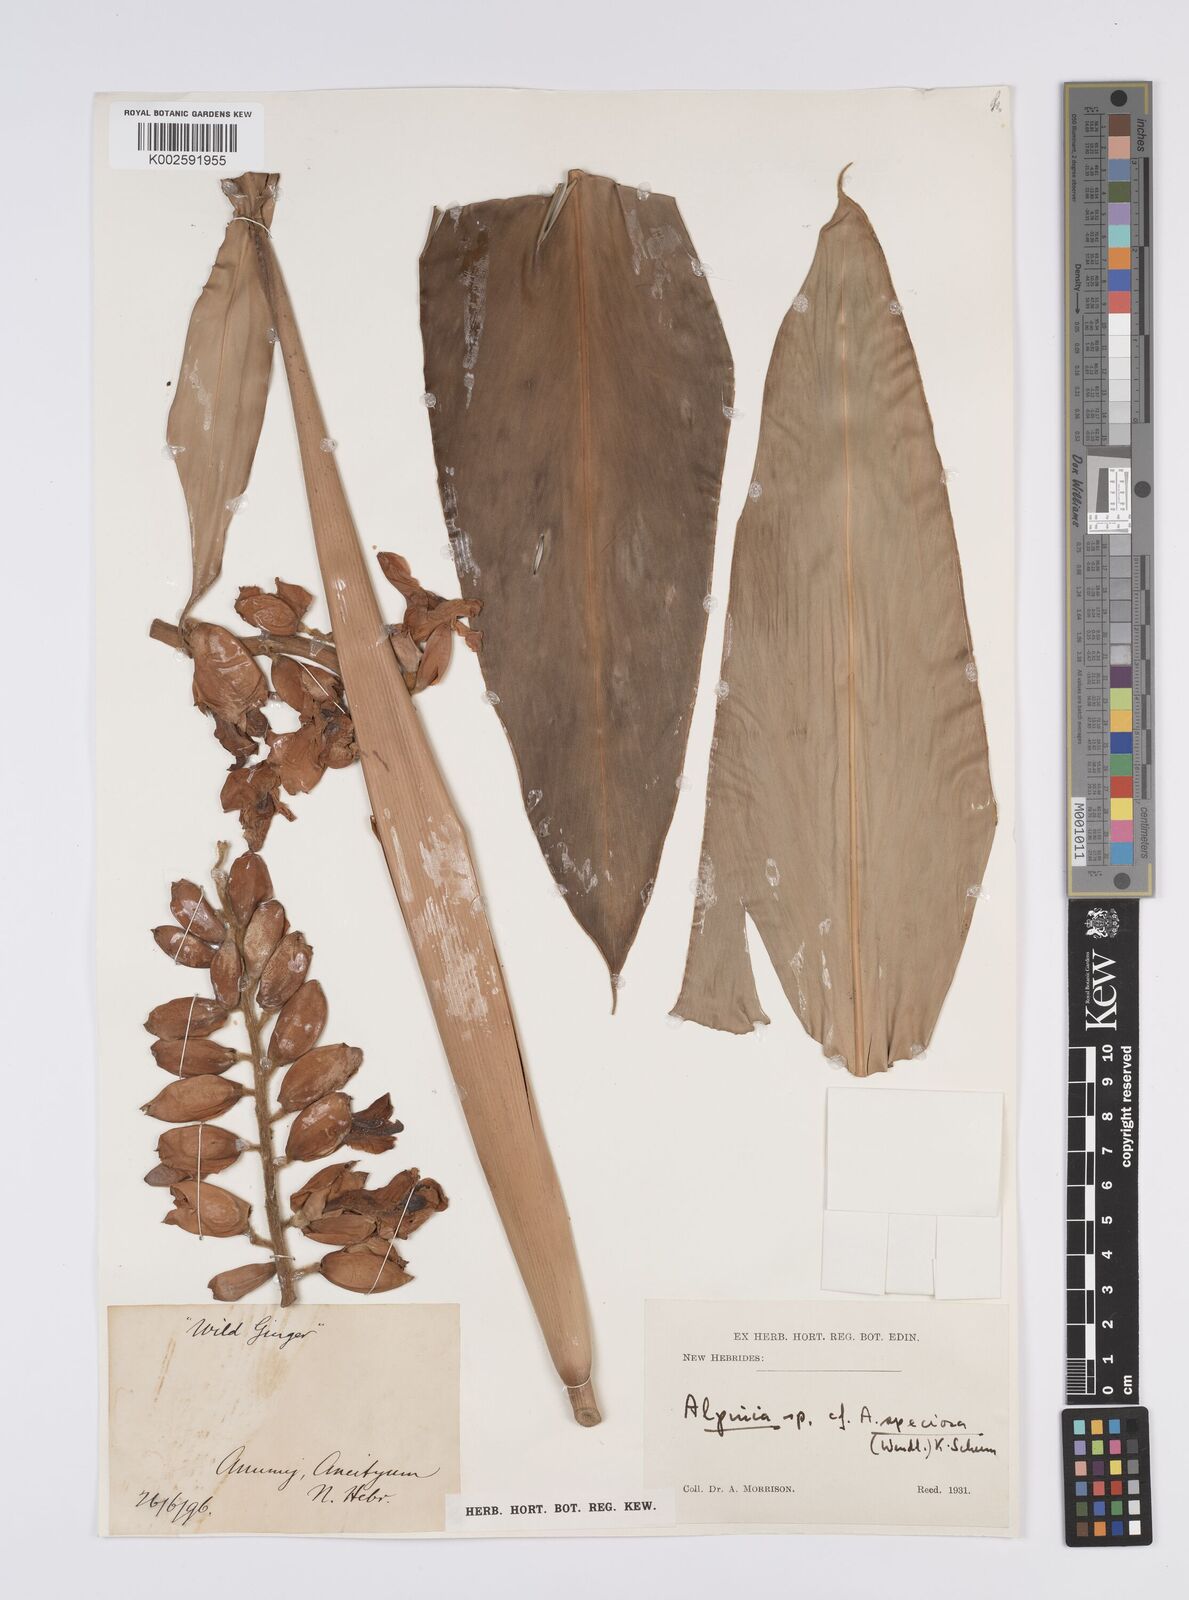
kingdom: Plantae
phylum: Tracheophyta
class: Liliopsida
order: Zingiberales
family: Zingiberaceae
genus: Alpinia
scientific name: Alpinia
